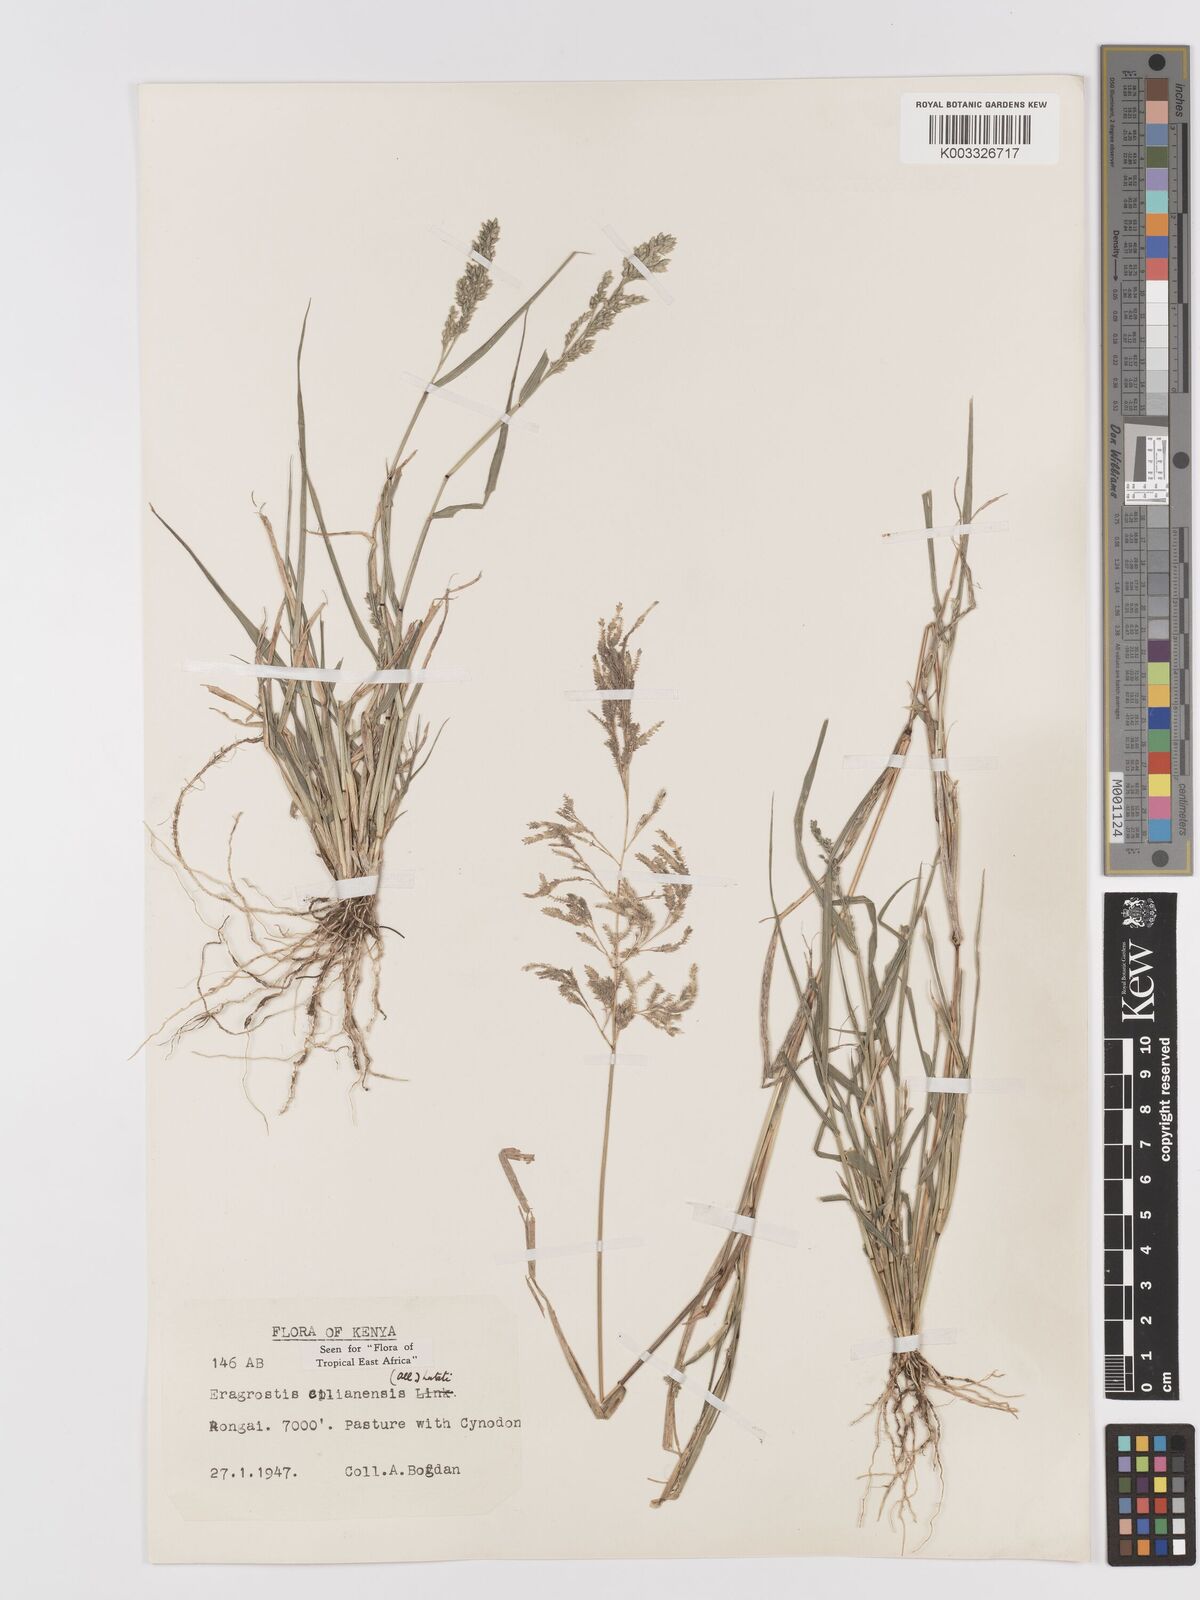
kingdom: Plantae
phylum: Tracheophyta
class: Liliopsida
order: Poales
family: Poaceae
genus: Eragrostis
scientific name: Eragrostis cilianensis
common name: Stinkgrass
